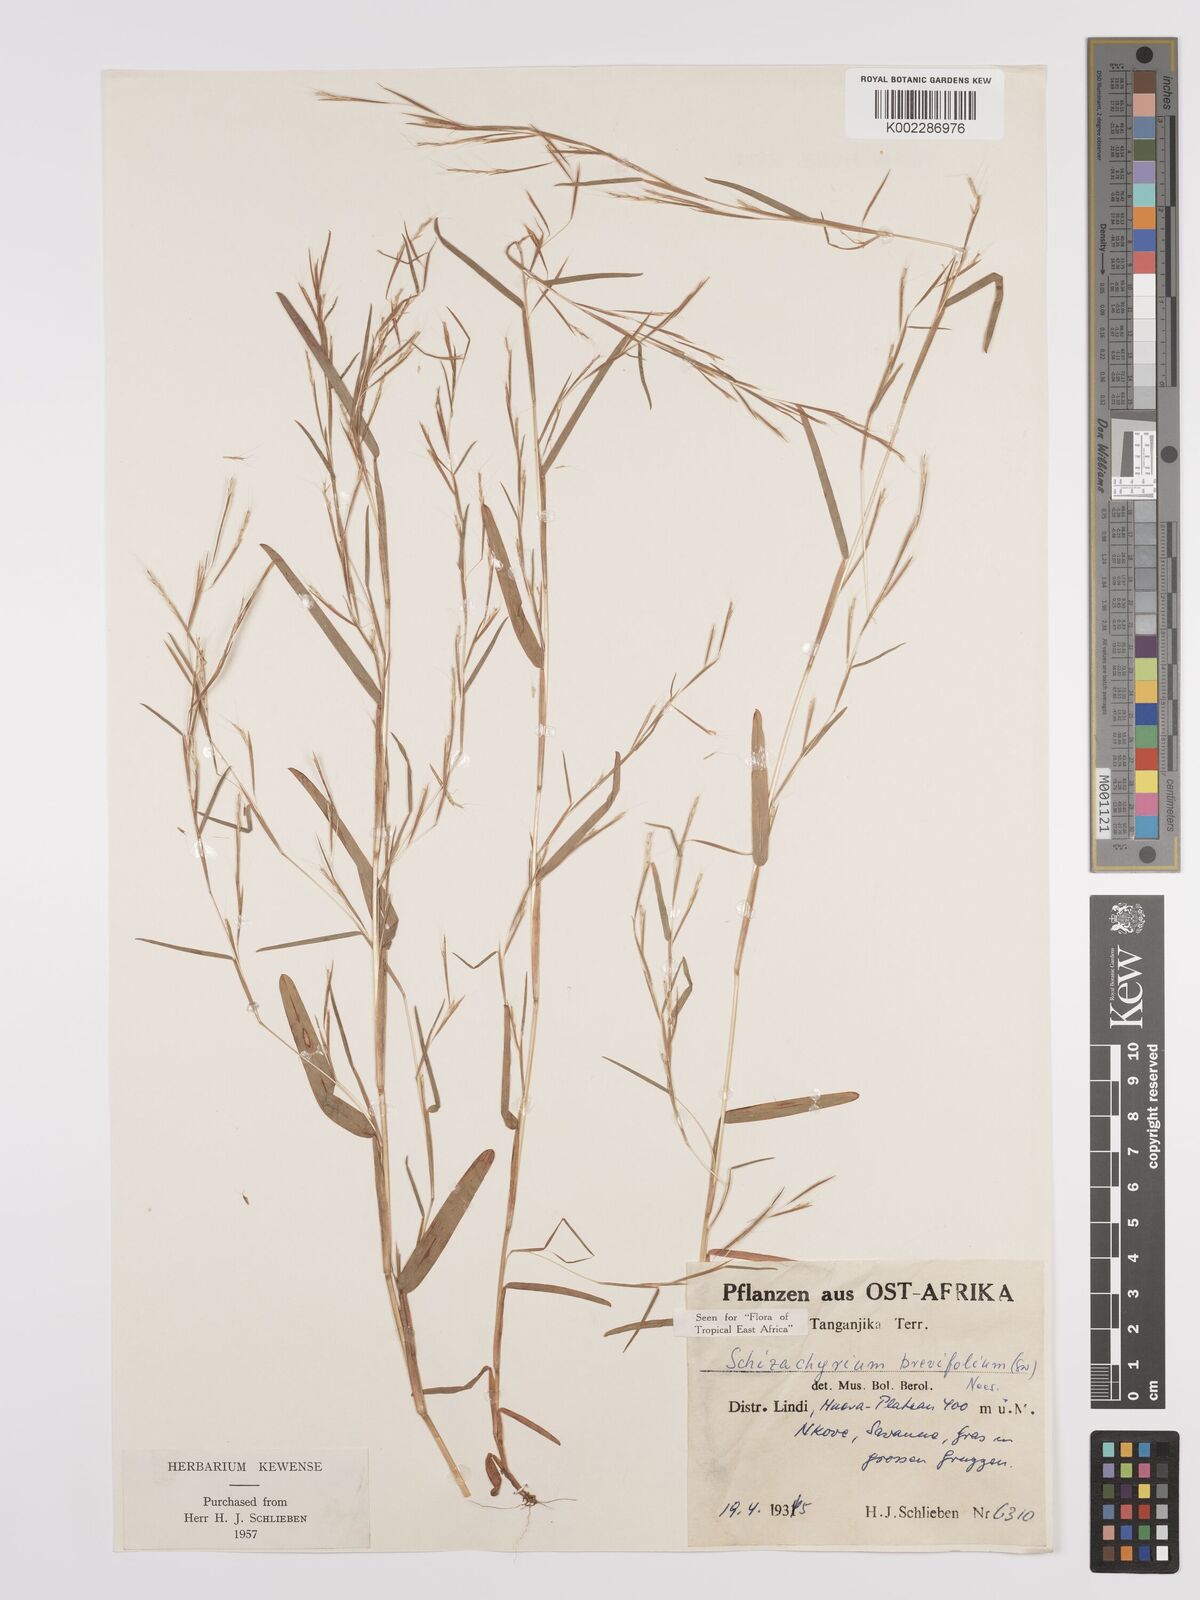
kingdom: Plantae
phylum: Tracheophyta
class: Liliopsida
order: Poales
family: Poaceae
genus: Schizachyrium
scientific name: Schizachyrium brevifolium
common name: Serillo dulce
